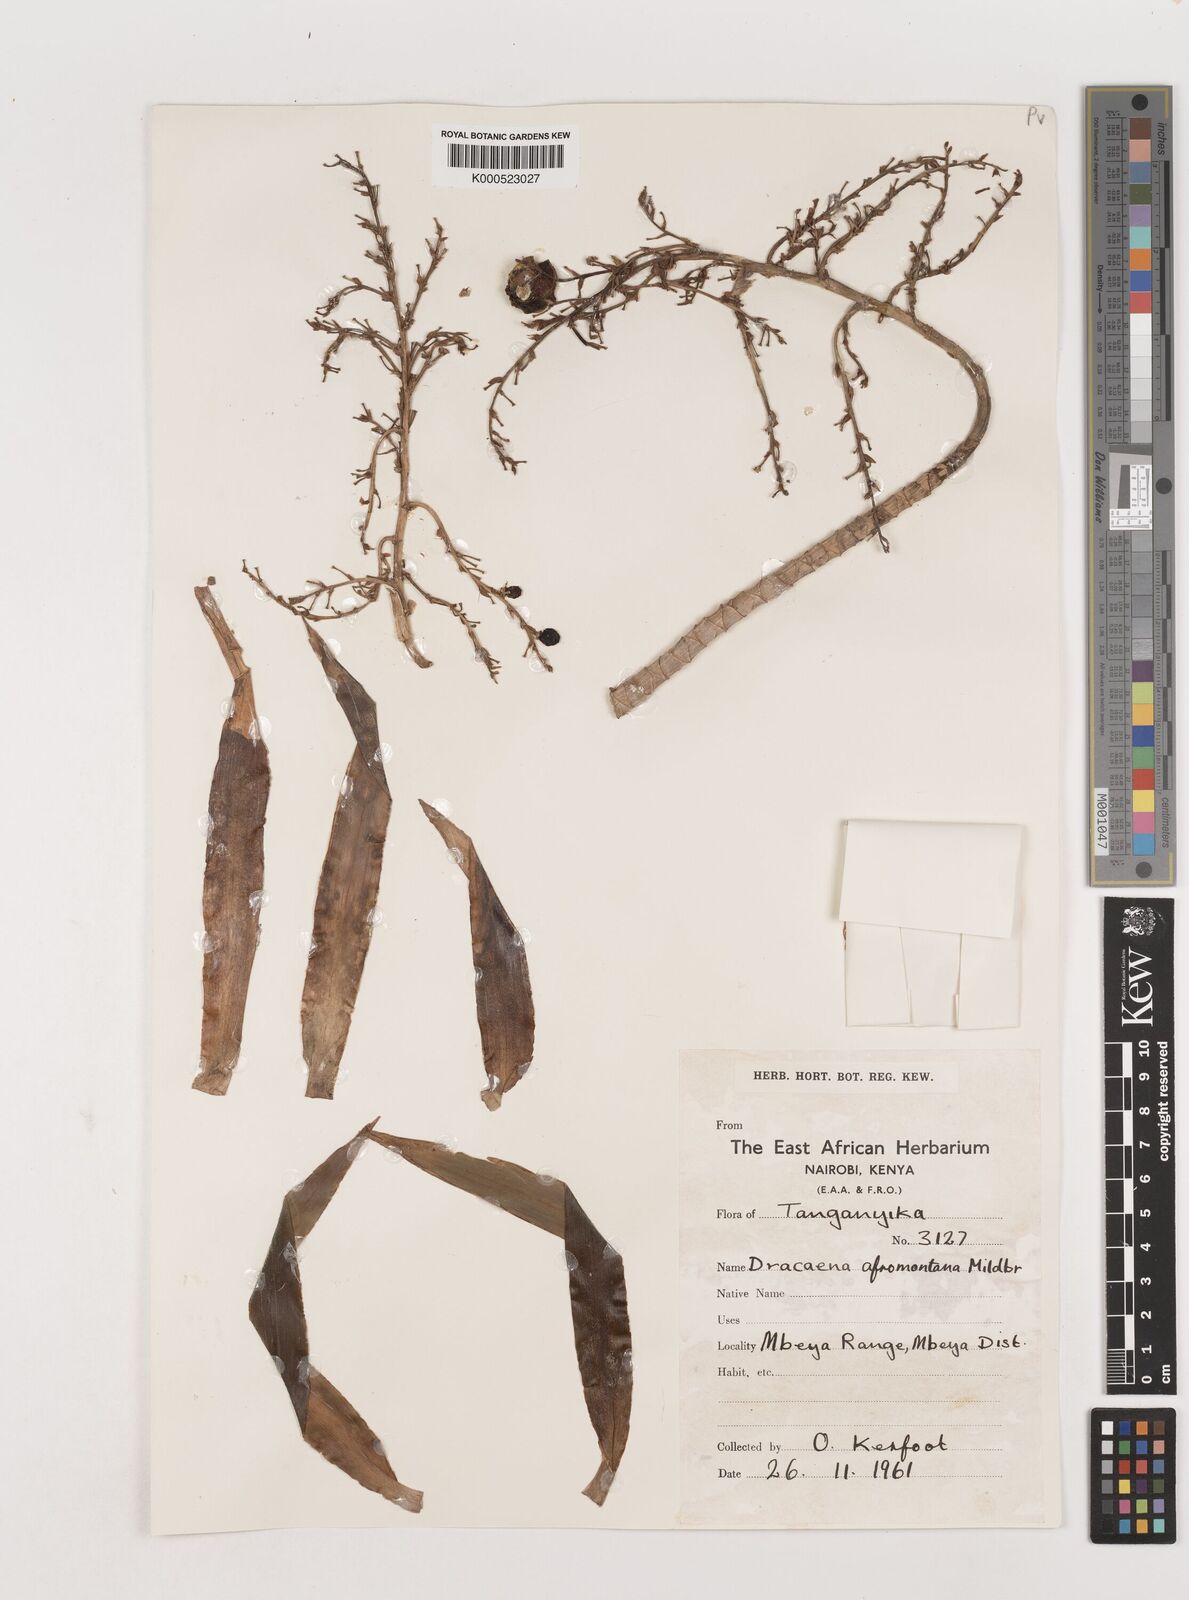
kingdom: Plantae
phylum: Tracheophyta
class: Liliopsida
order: Asparagales
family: Asparagaceae
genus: Dracaena
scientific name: Dracaena afromontana
